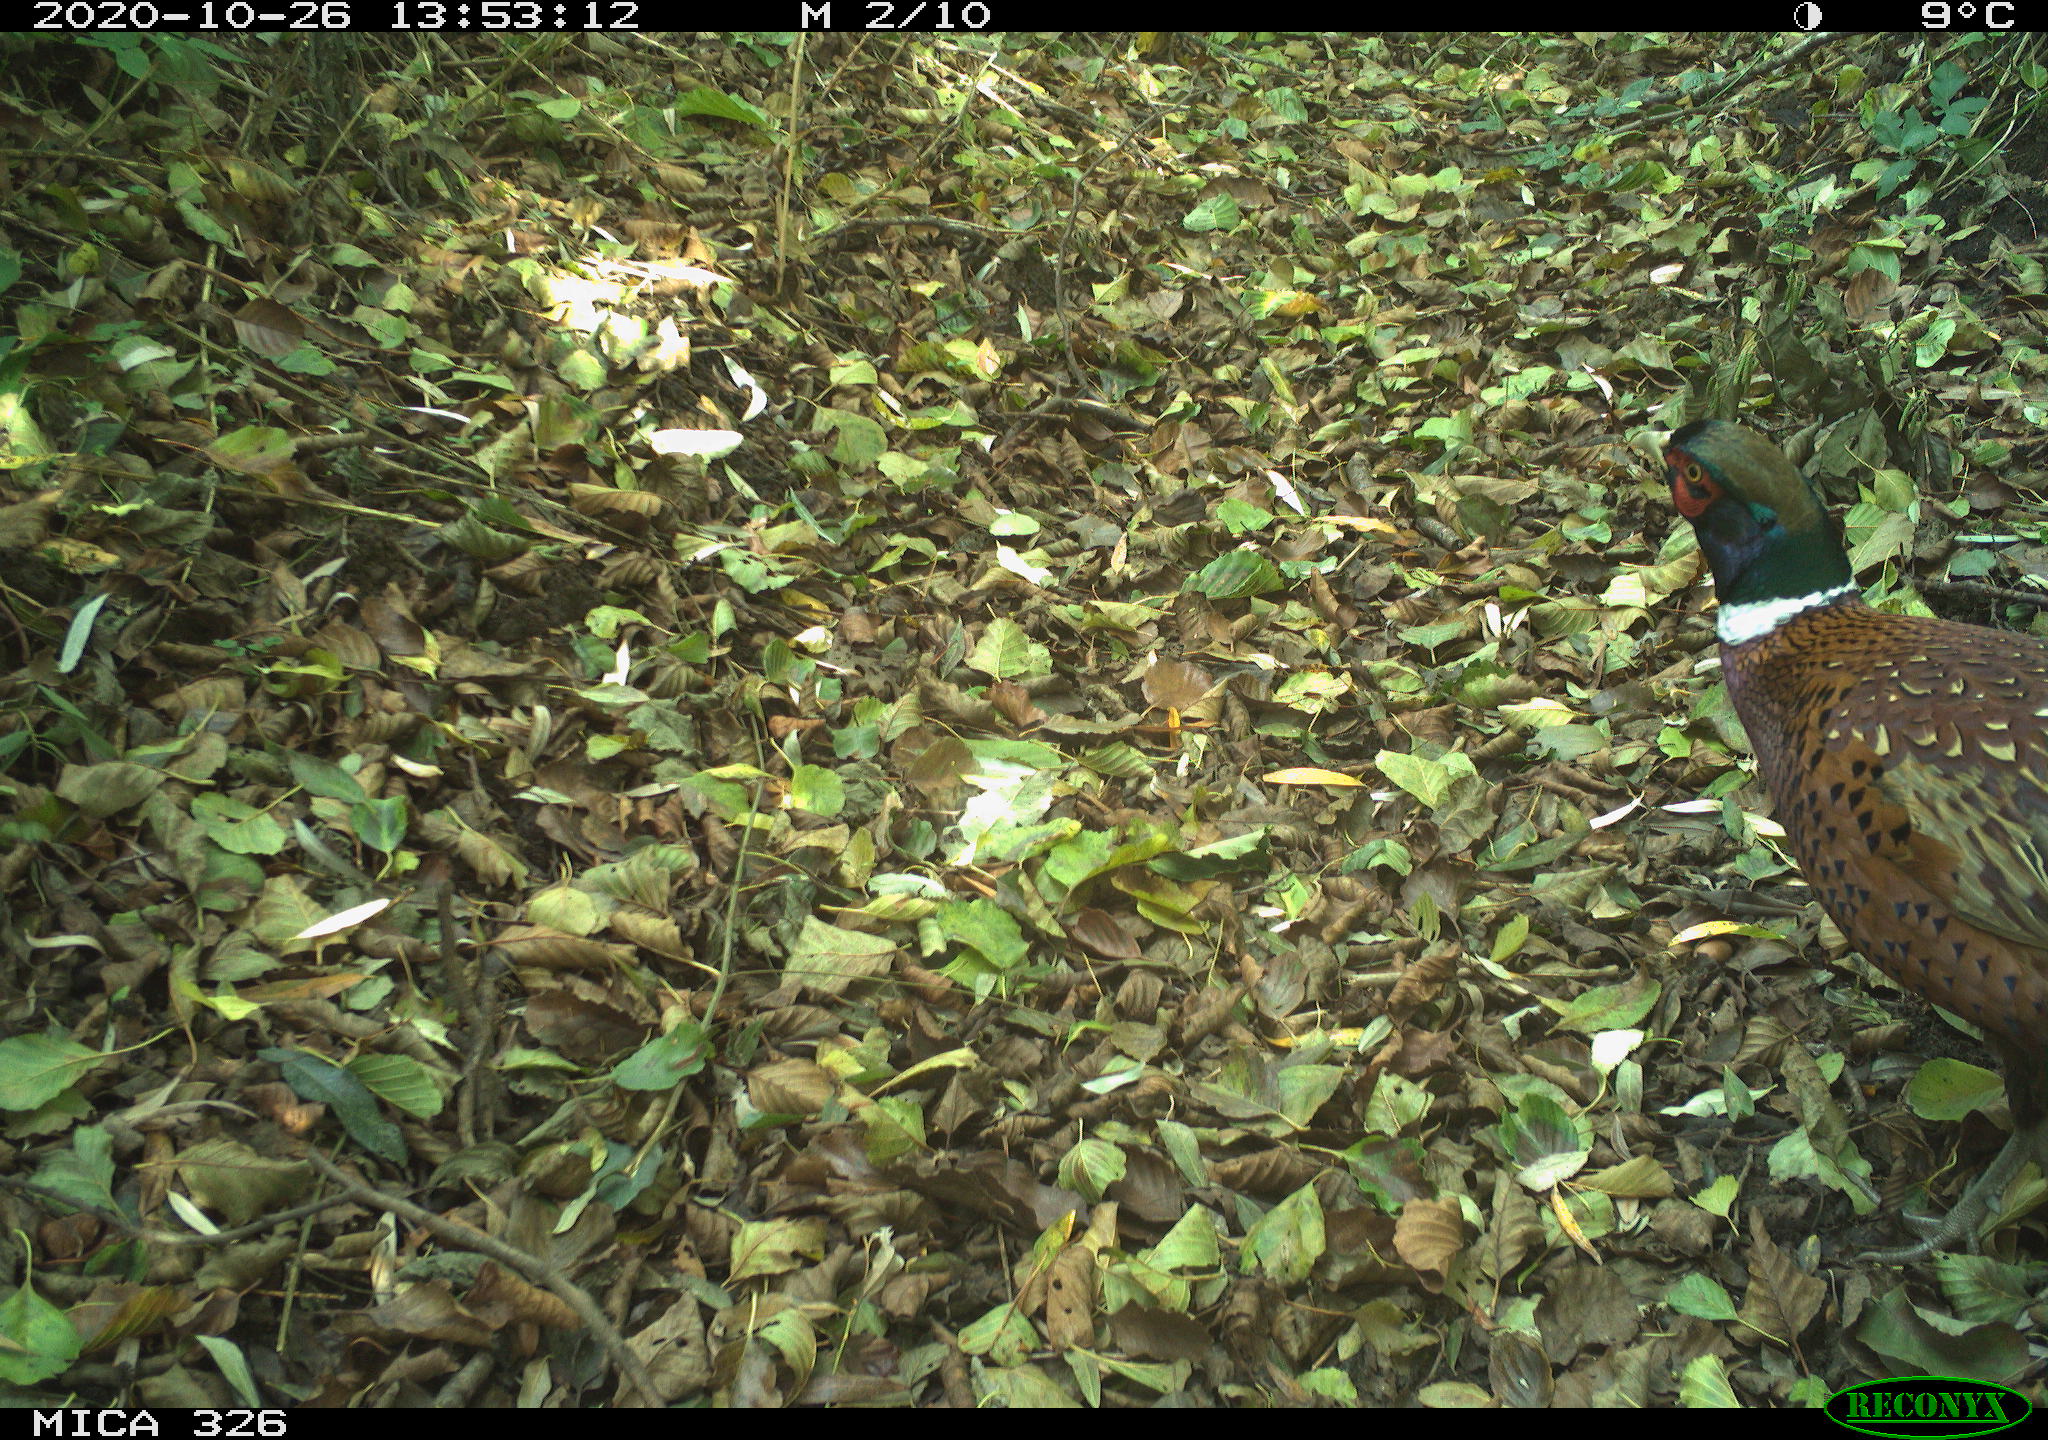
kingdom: Animalia
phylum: Chordata
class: Aves
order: Galliformes
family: Phasianidae
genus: Phasianus
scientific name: Phasianus colchicus
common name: Common pheasant
